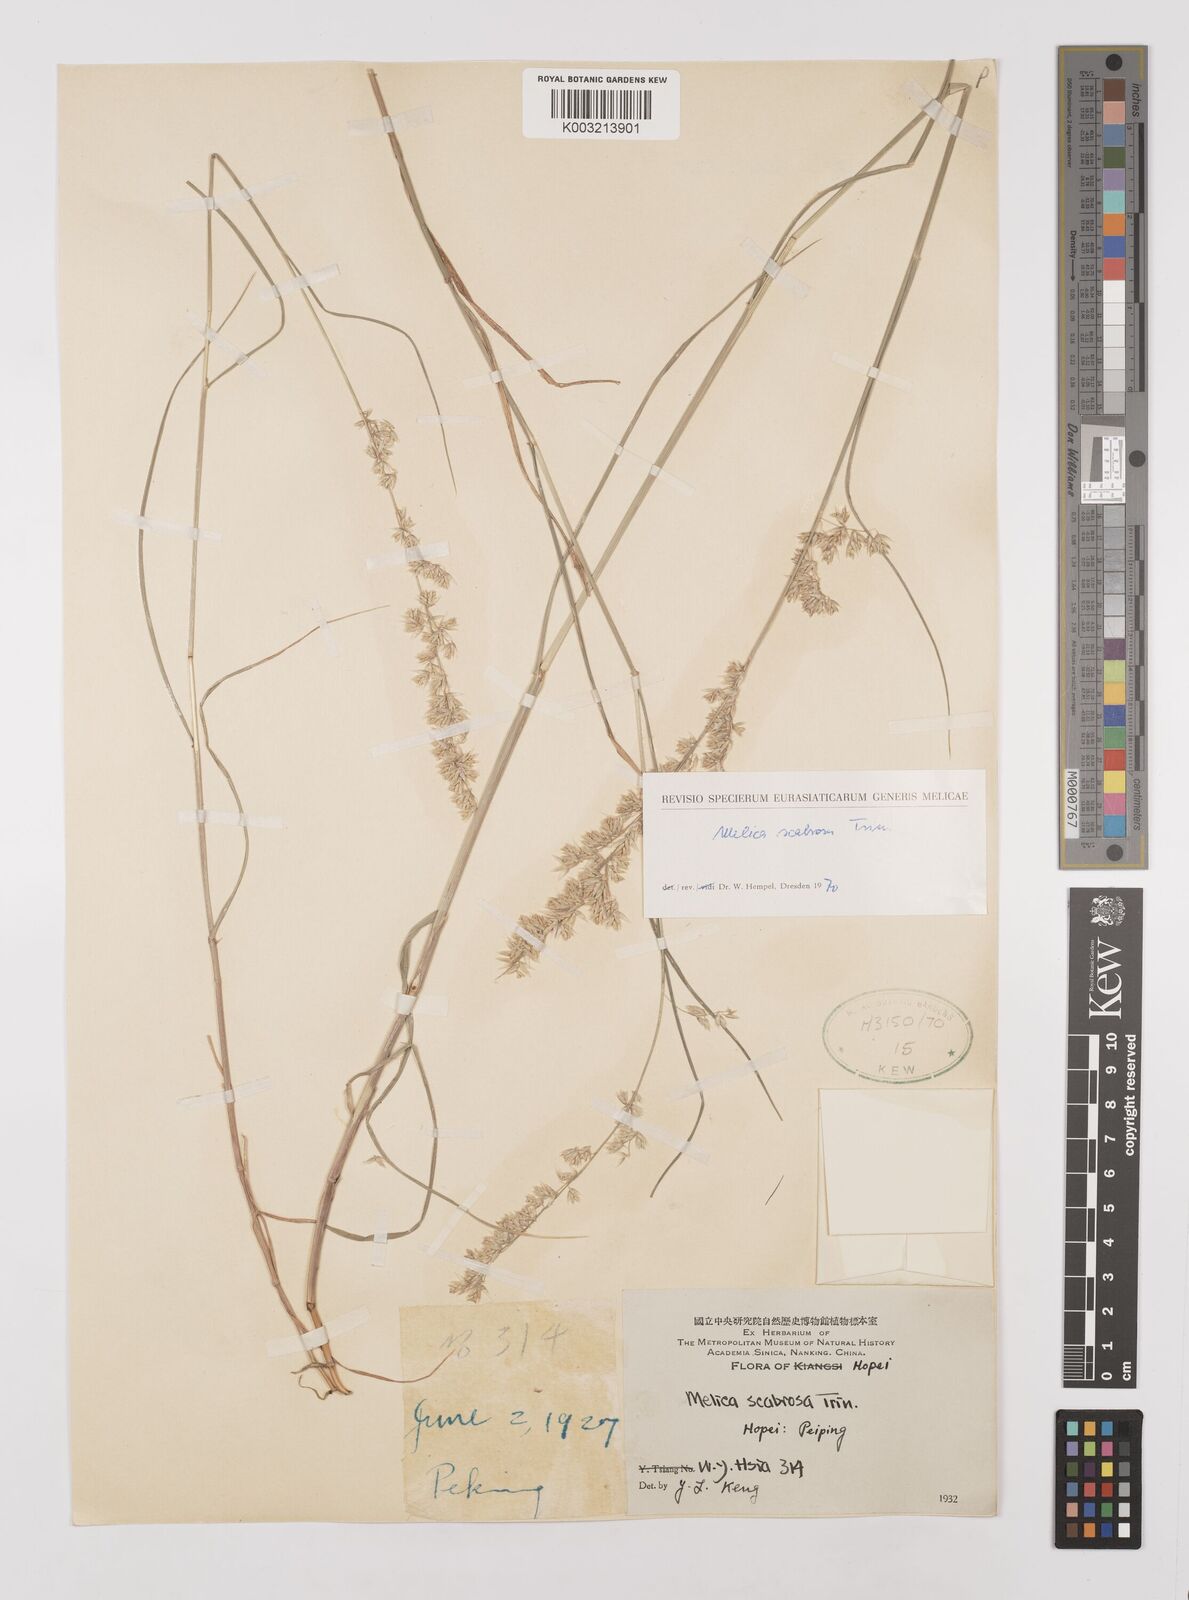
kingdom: Plantae
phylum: Tracheophyta
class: Liliopsida
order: Poales
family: Poaceae
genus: Melica
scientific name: Melica scabrosa
